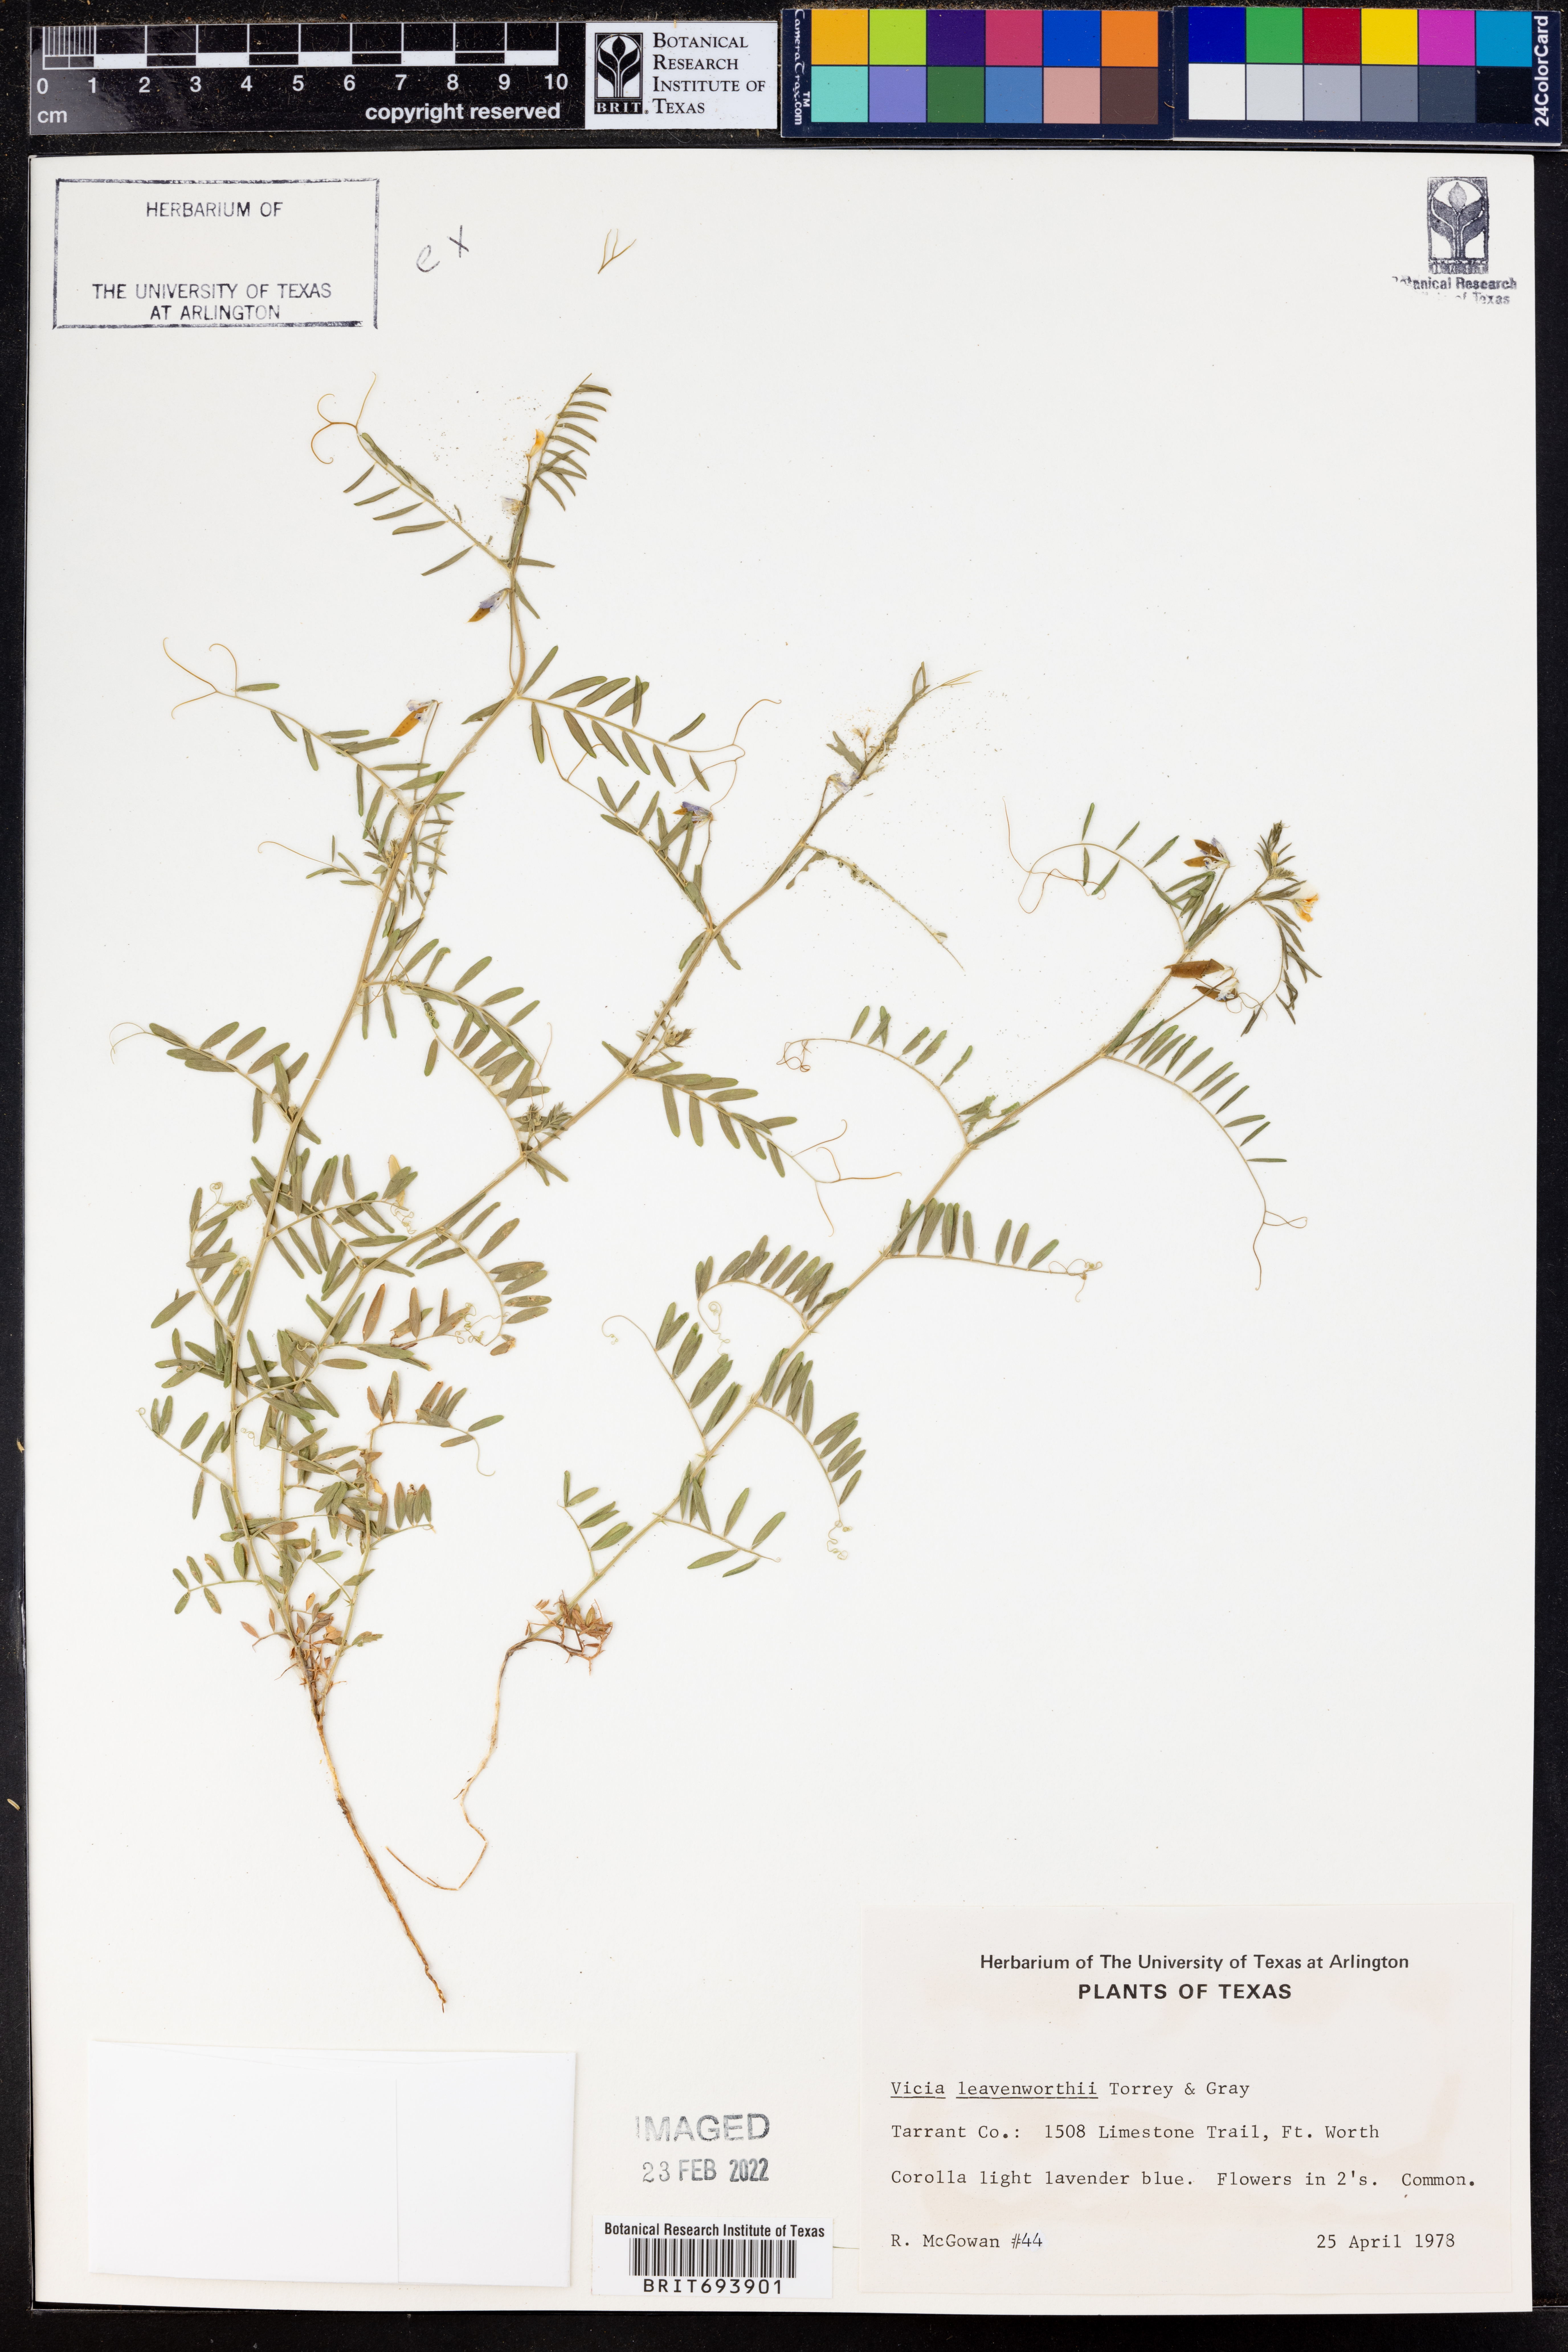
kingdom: Plantae
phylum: Tracheophyta
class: Magnoliopsida
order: Fabales
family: Fabaceae
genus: Vicia
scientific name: Vicia ludoviciana
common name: Louisiana vetch
